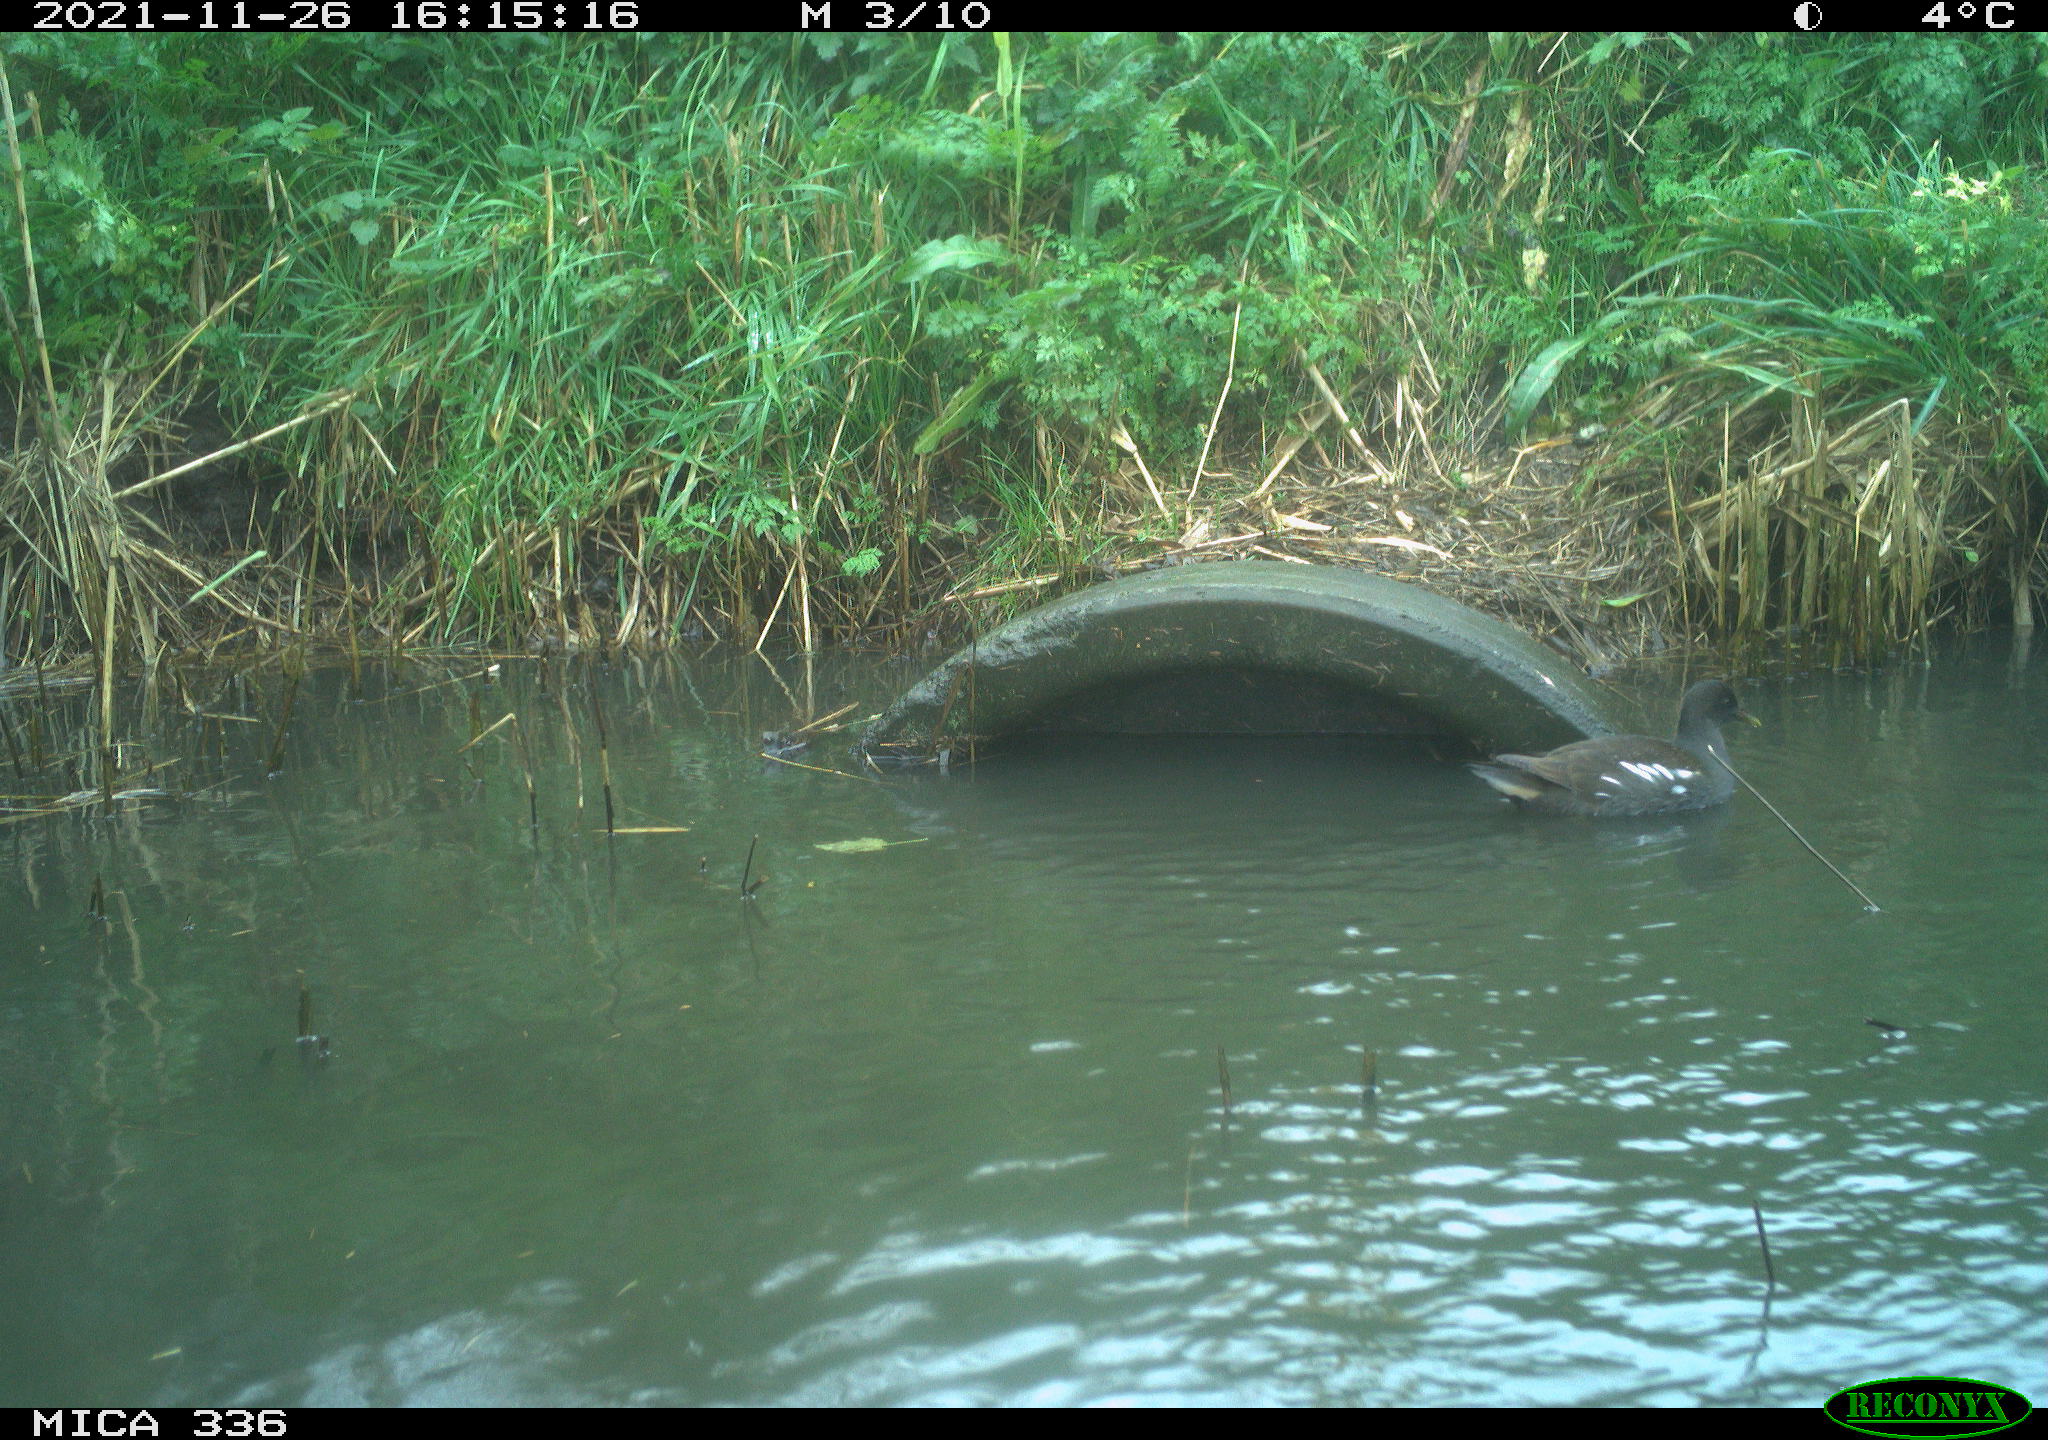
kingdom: Animalia
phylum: Chordata
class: Aves
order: Gruiformes
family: Rallidae
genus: Gallinula
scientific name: Gallinula chloropus
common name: Common moorhen
